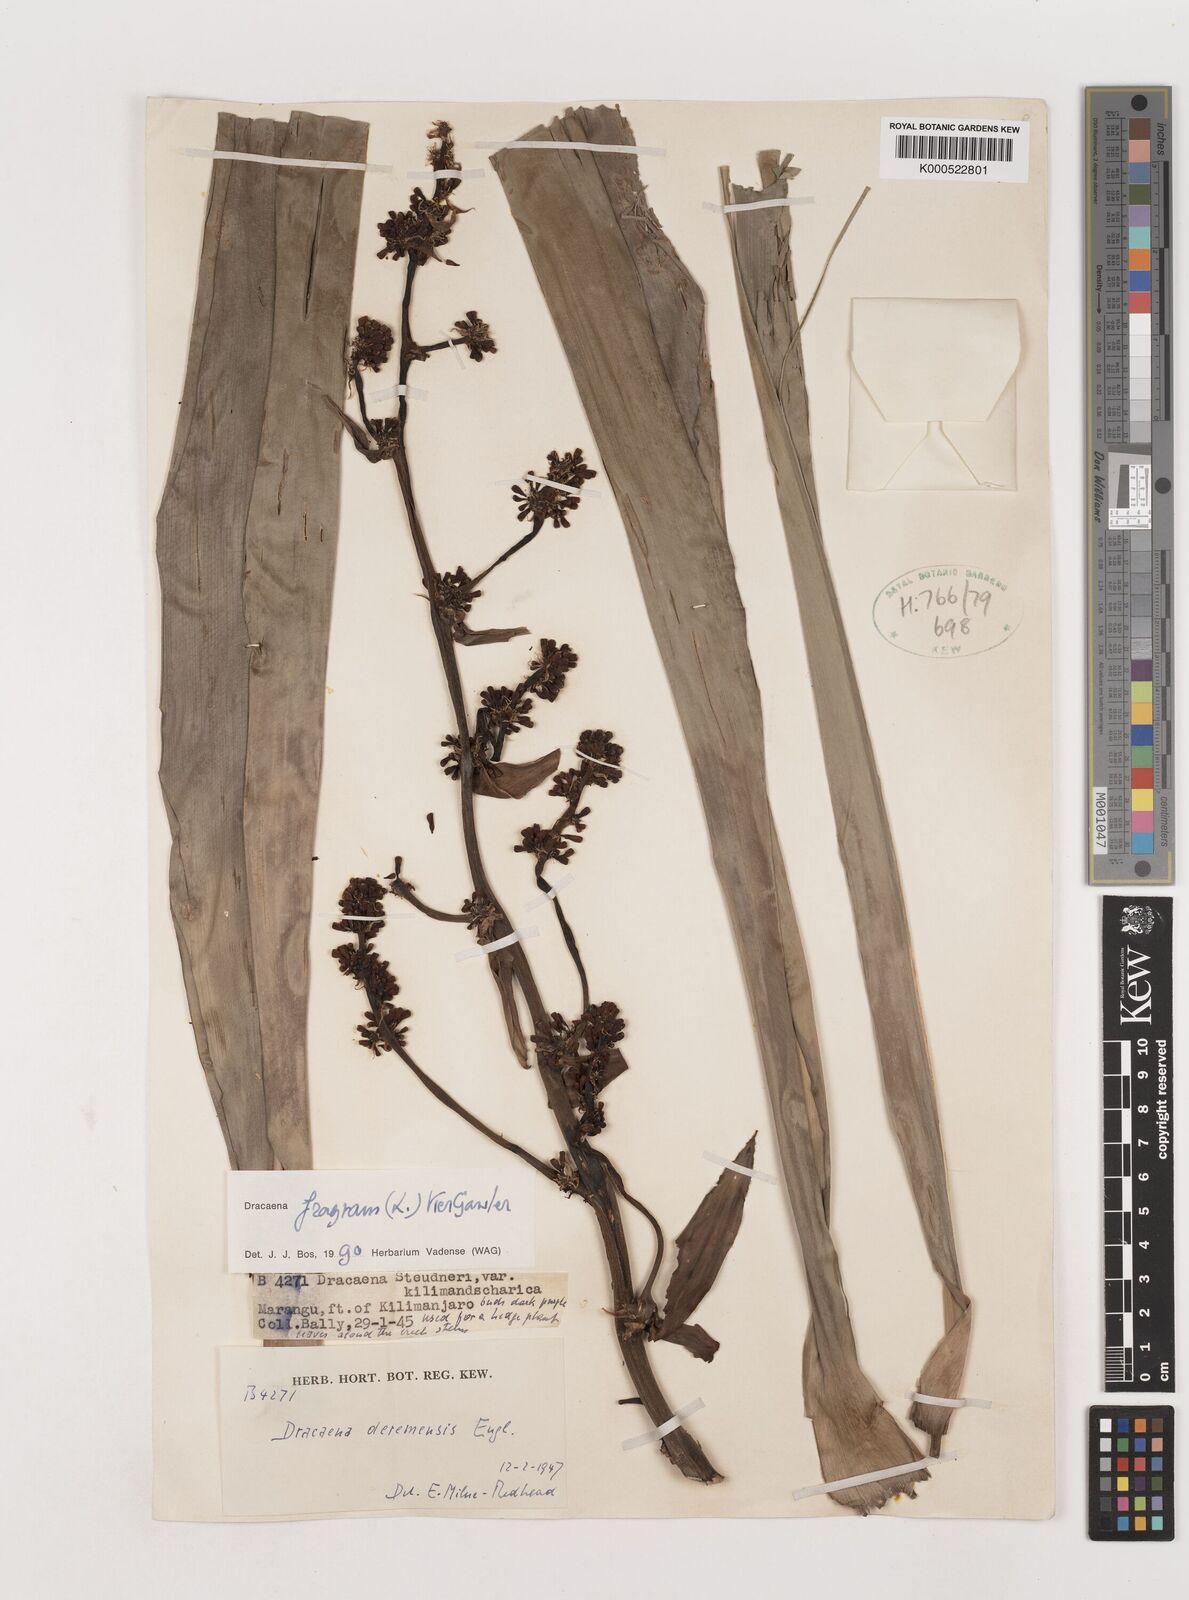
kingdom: Plantae
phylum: Tracheophyta
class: Liliopsida
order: Asparagales
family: Asparagaceae
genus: Dracaena
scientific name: Dracaena fragrans
